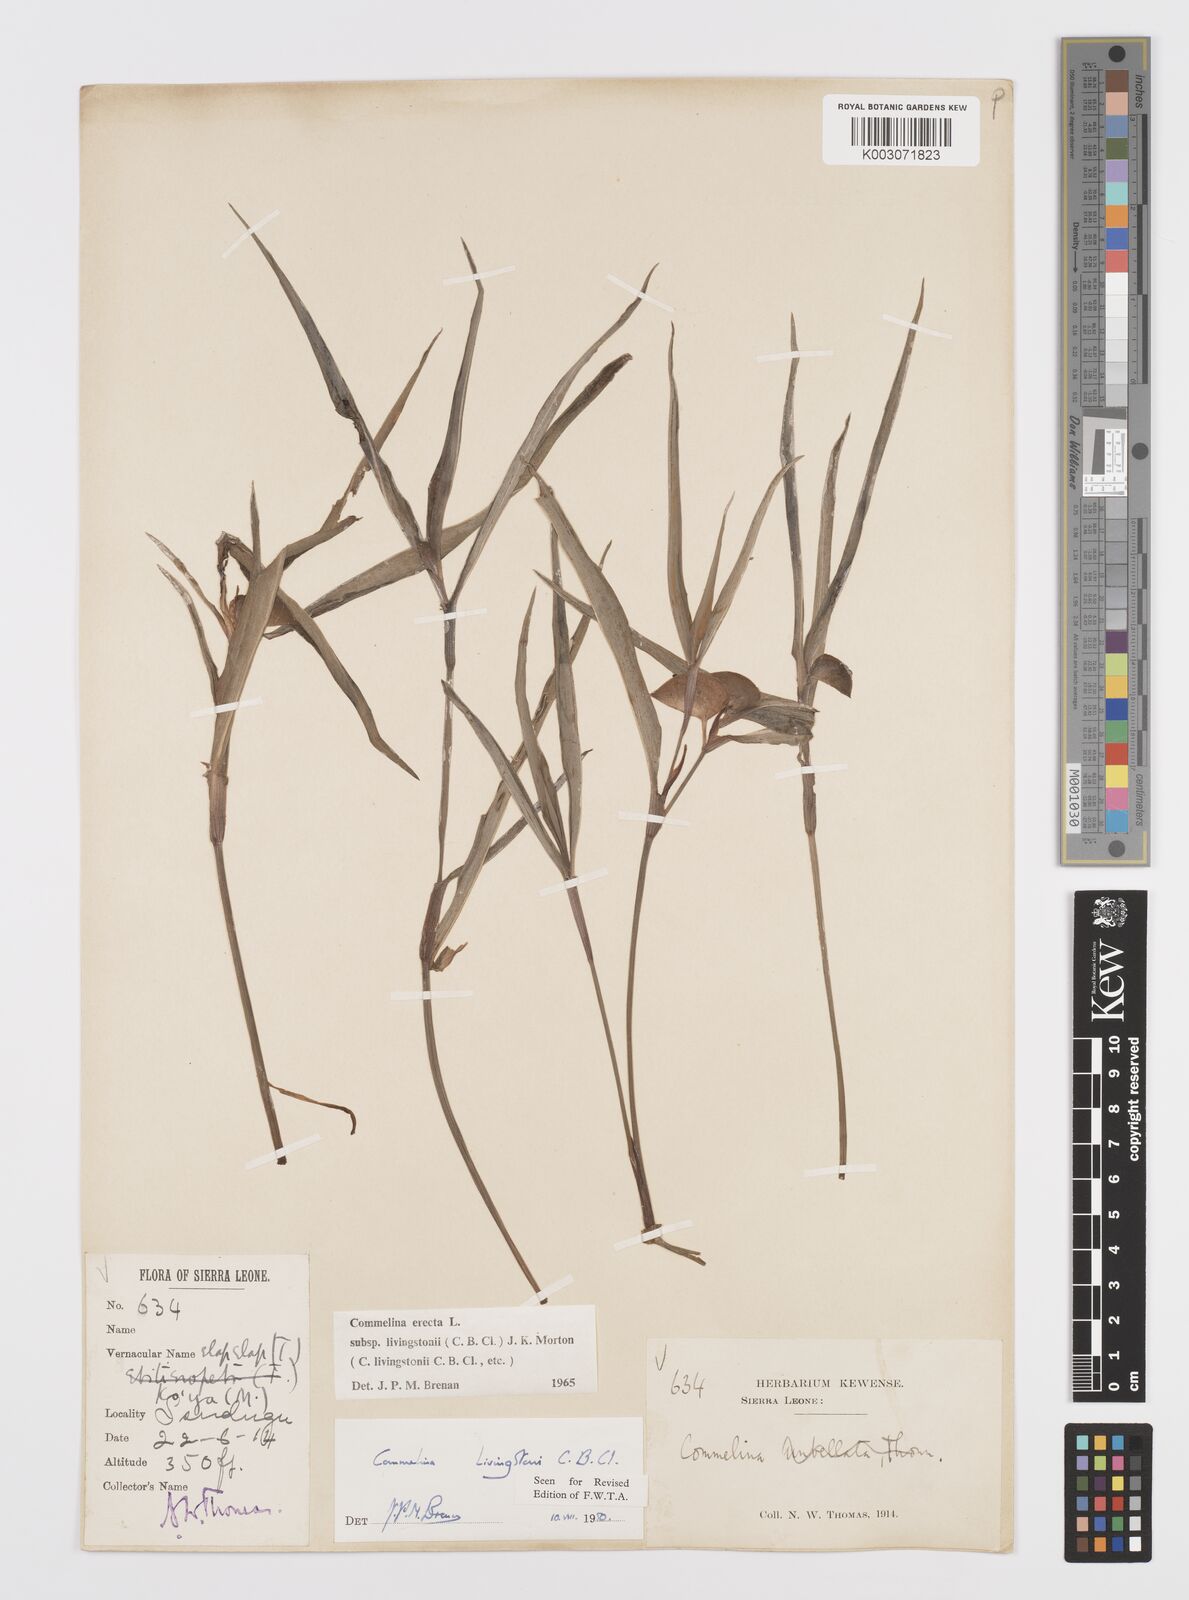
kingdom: Plantae
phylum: Tracheophyta
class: Liliopsida
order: Commelinales
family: Commelinaceae
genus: Commelina
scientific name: Commelina erecta
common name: Blousel blommetjie
